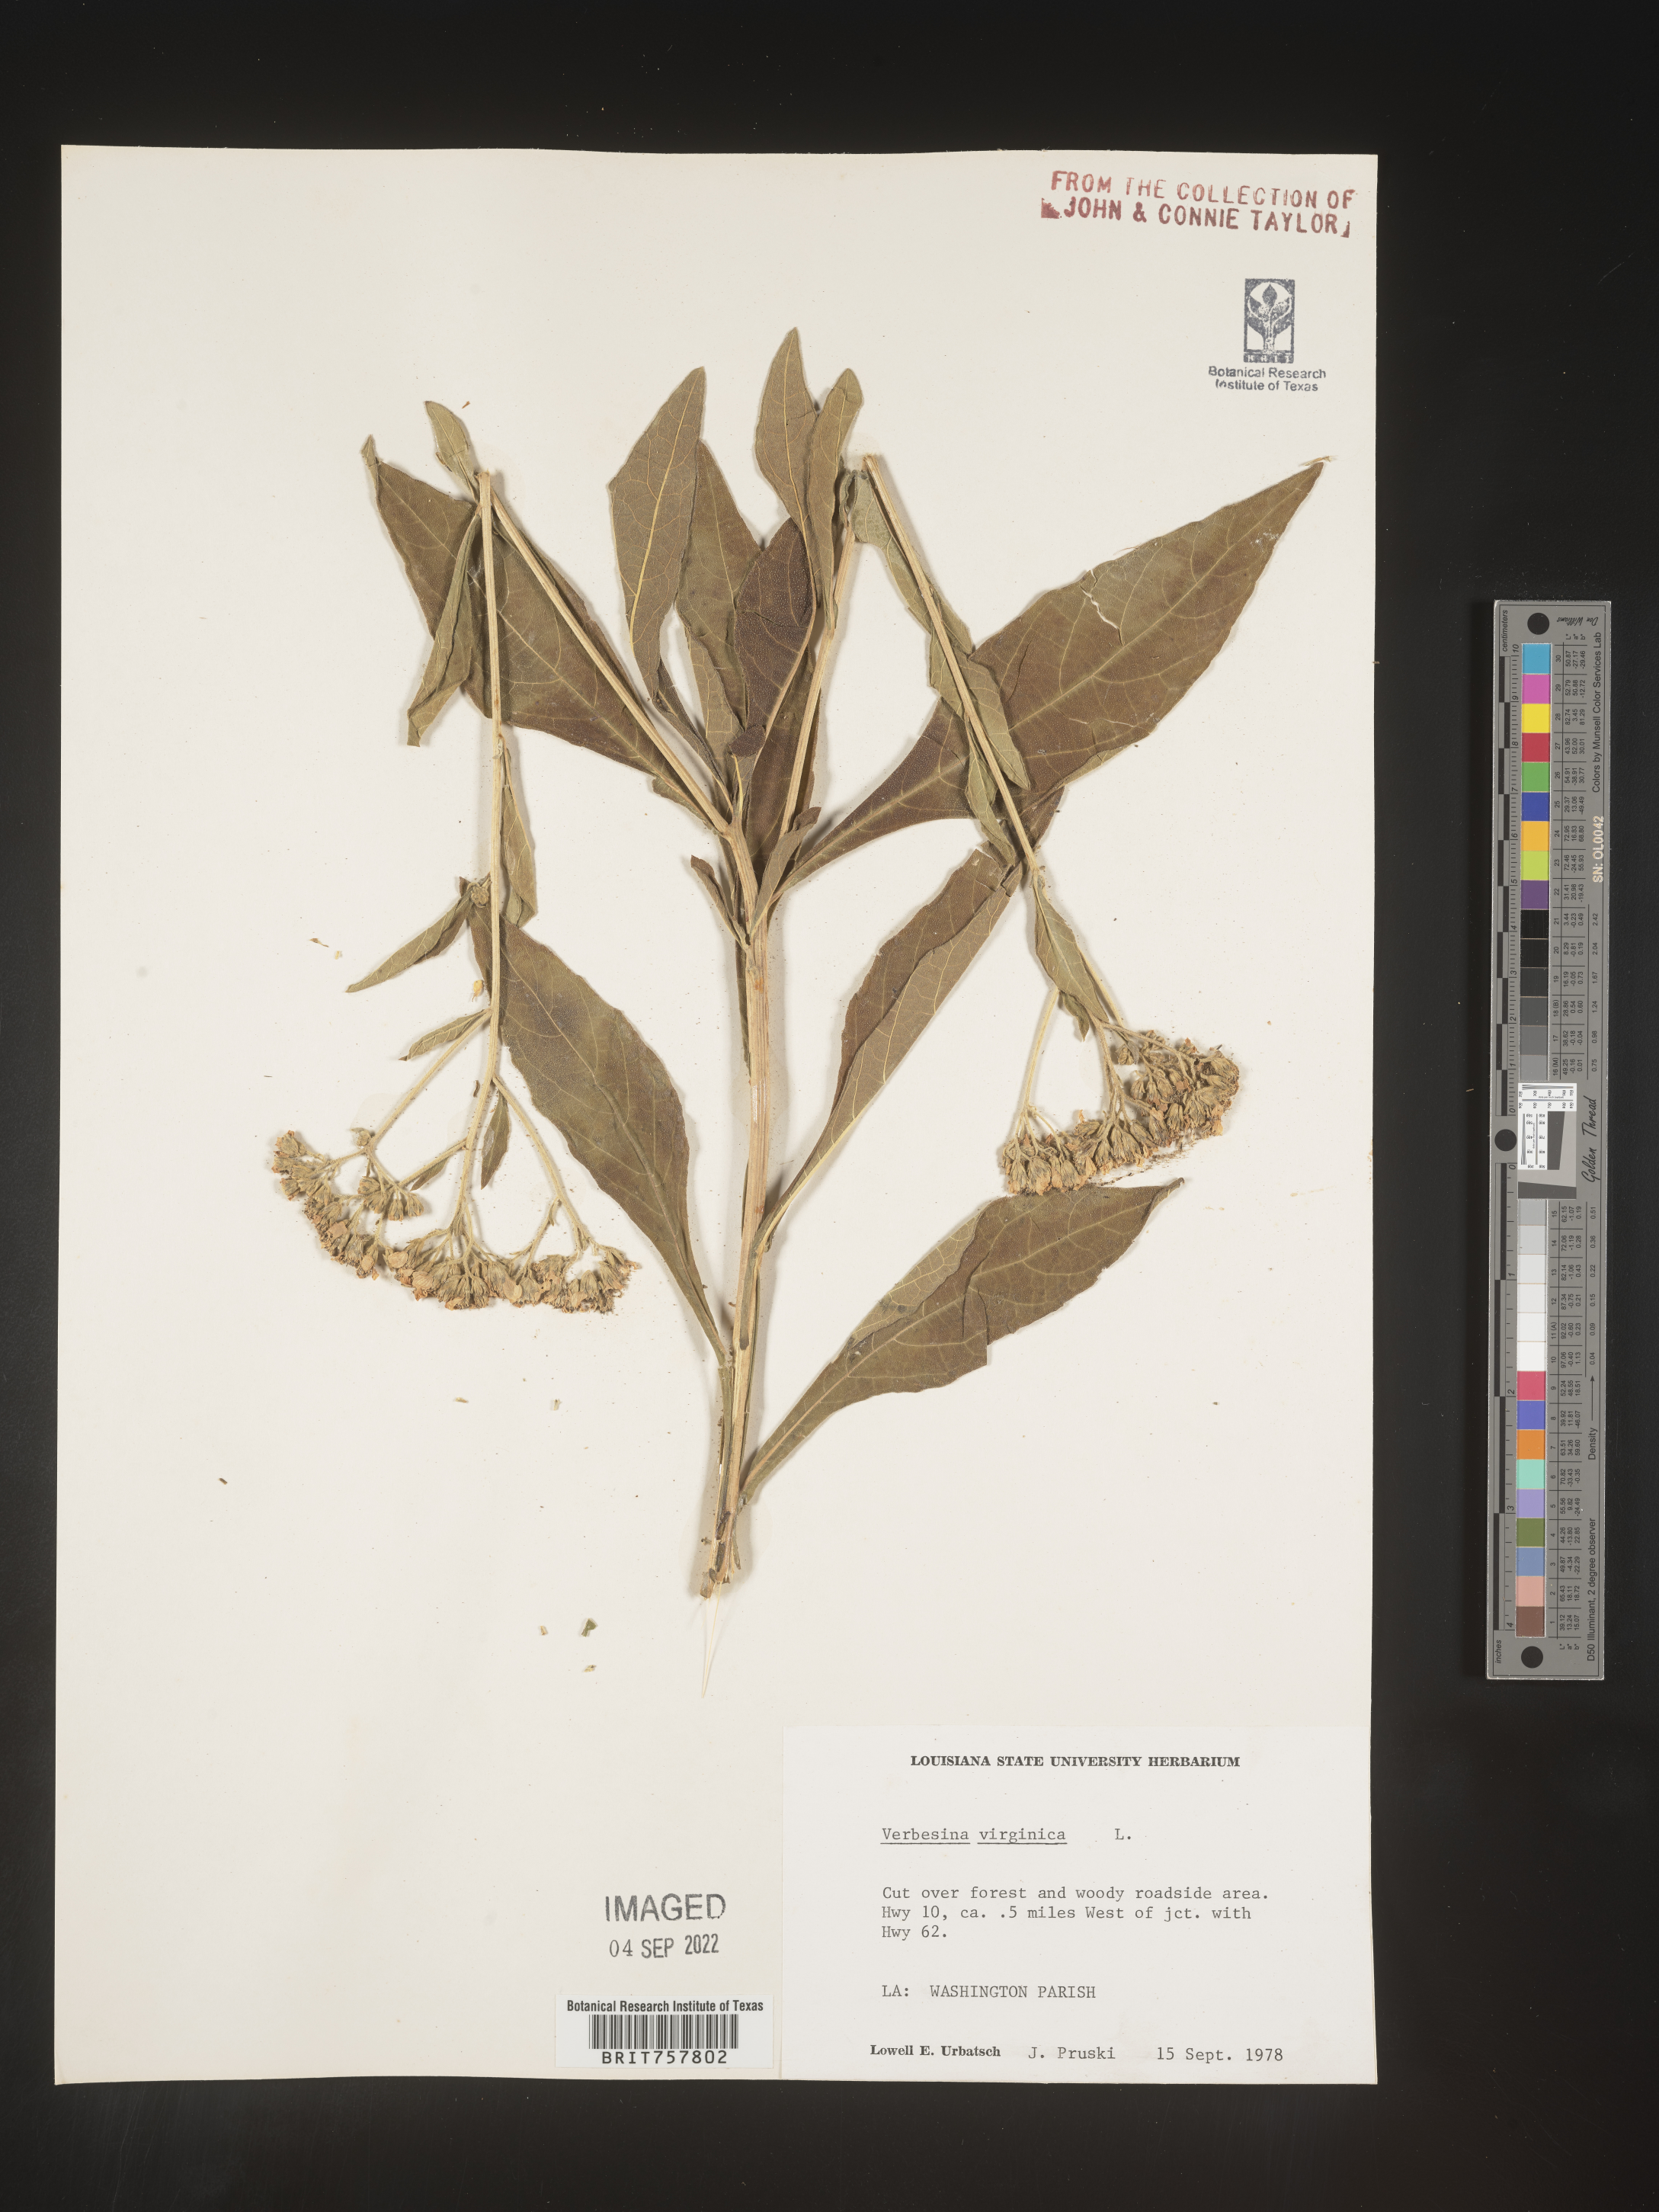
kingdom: Plantae
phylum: Tracheophyta
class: Magnoliopsida
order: Asterales
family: Asteraceae
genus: Verbesina
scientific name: Verbesina virginica
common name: Frostweed
